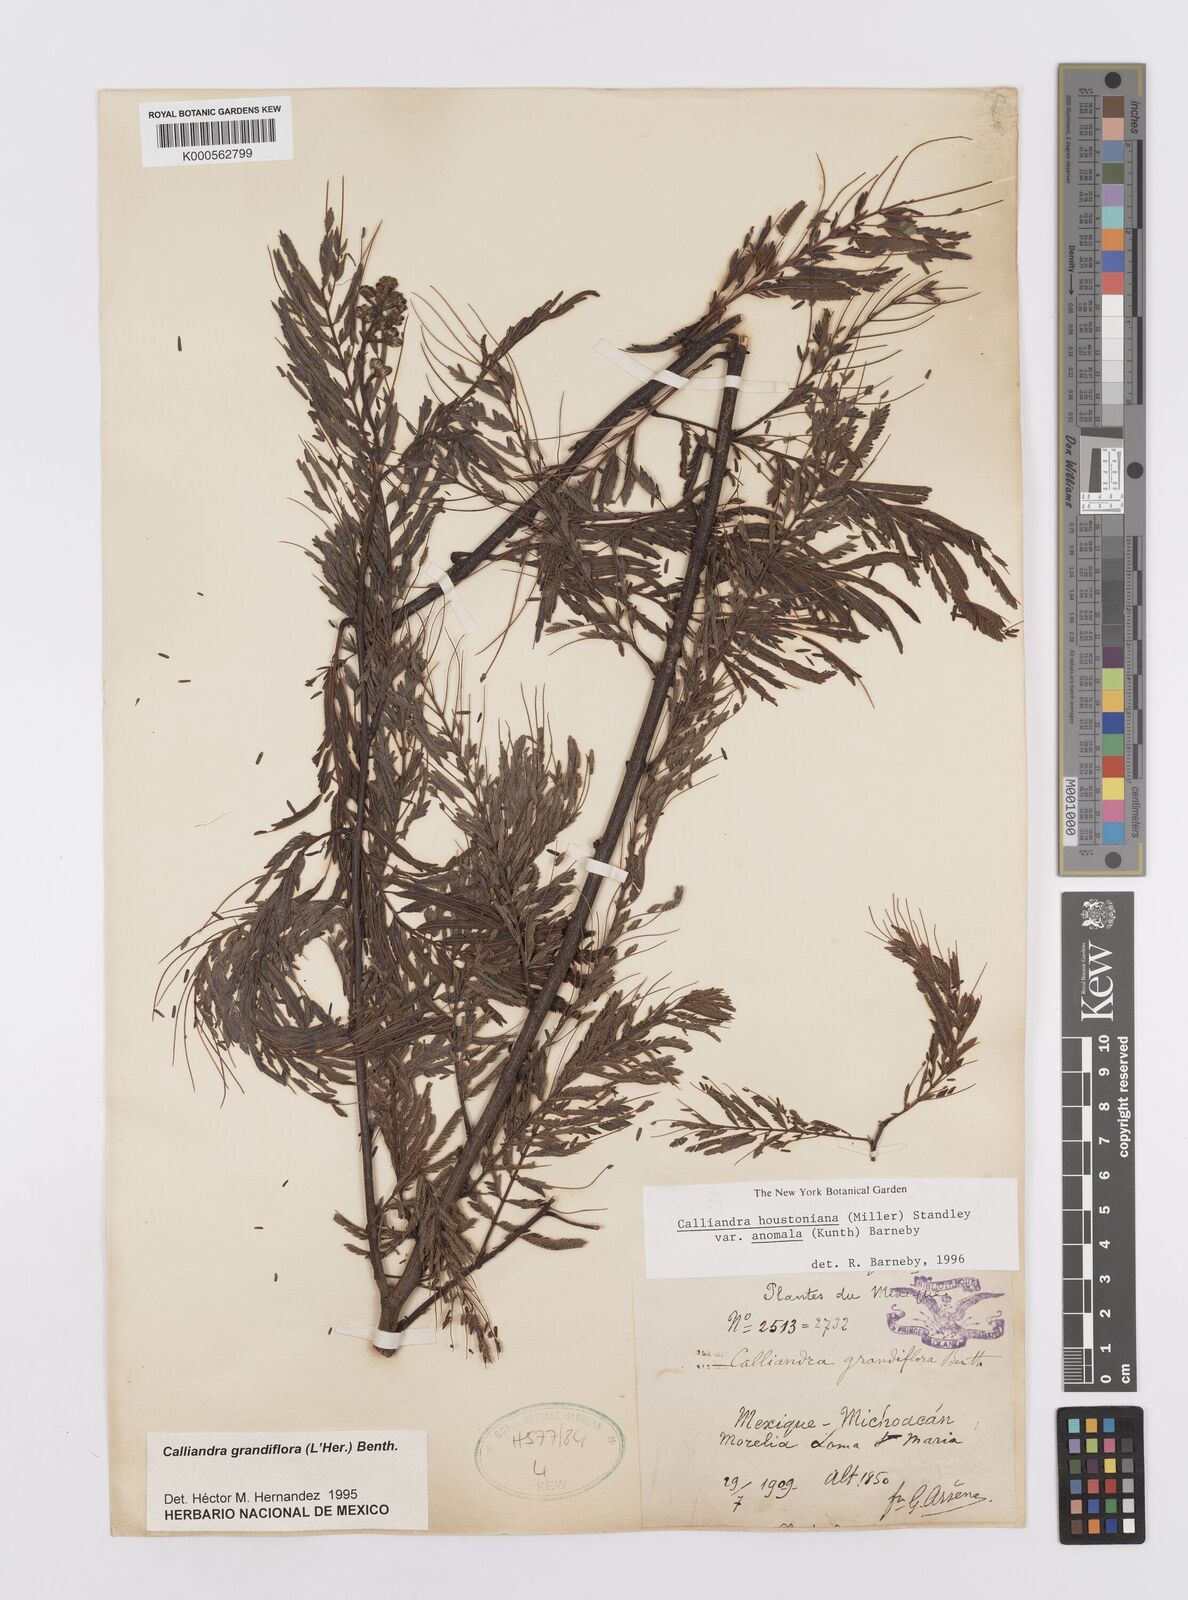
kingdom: Plantae
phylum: Tracheophyta
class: Magnoliopsida
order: Fabales
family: Fabaceae
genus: Calliandra
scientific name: Calliandra houstoniana
